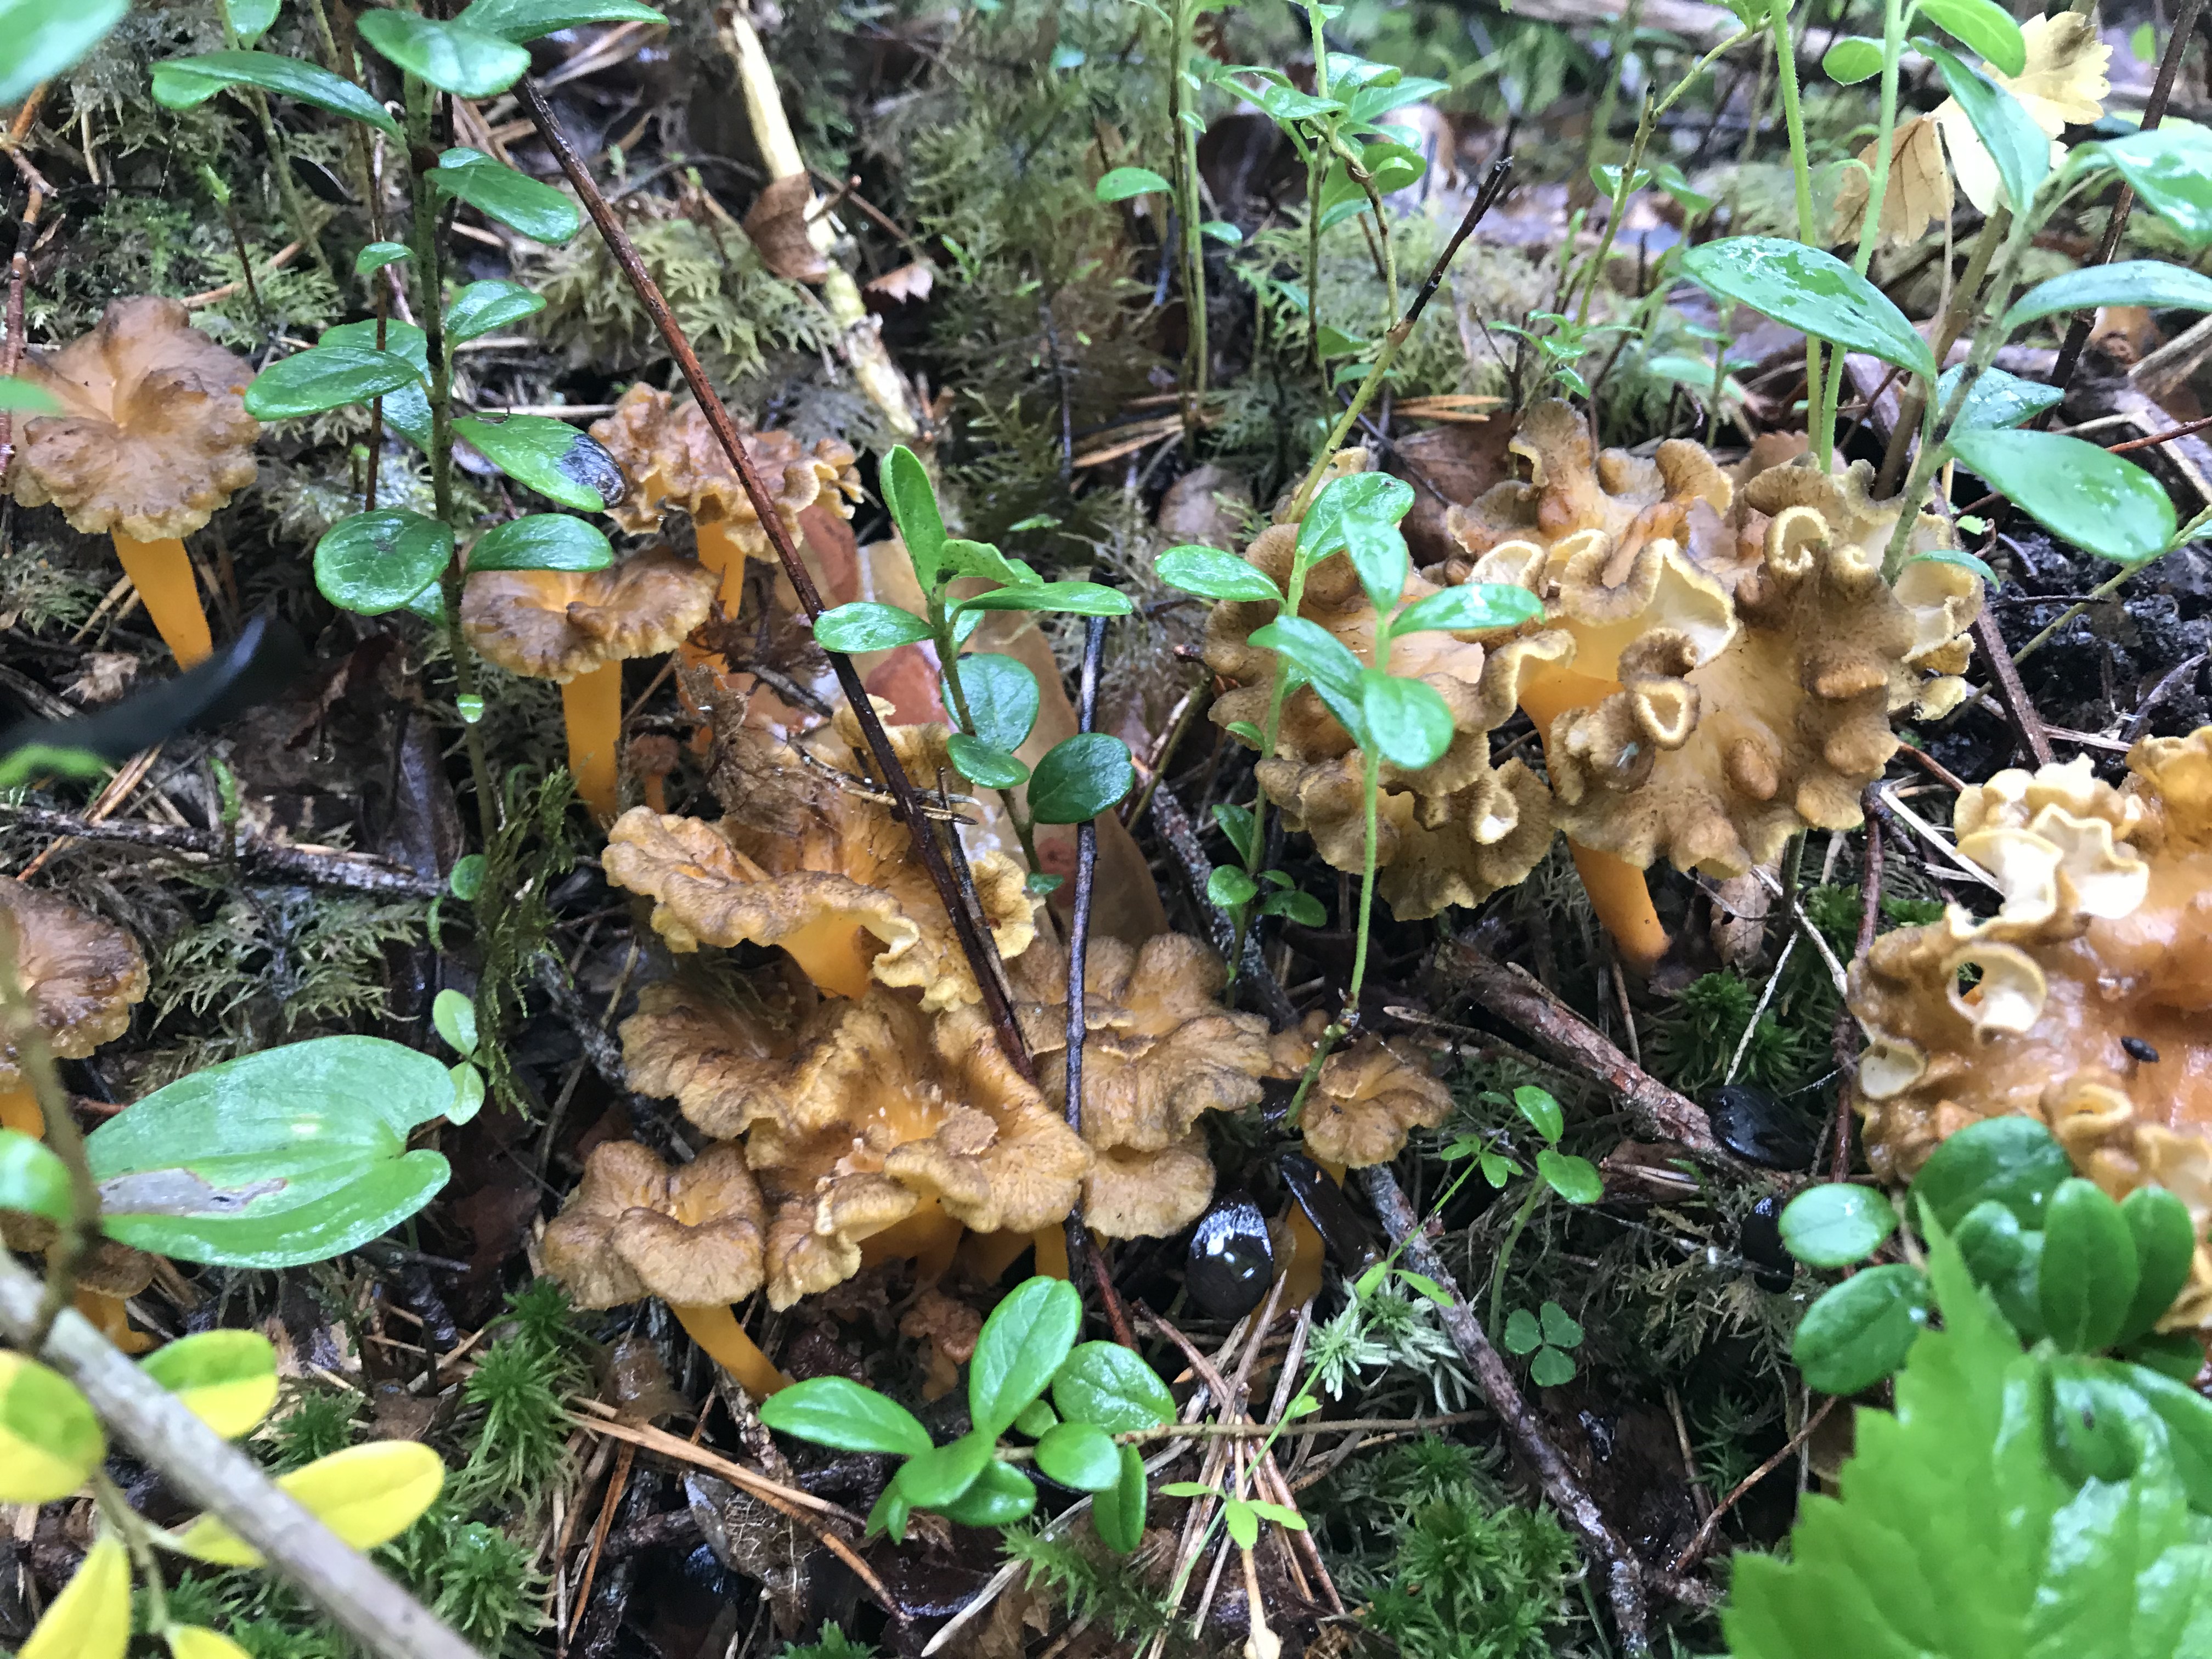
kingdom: Fungi
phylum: Basidiomycota
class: Agaricomycetes
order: Cantharellales
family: Hydnaceae
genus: Craterellus
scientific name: Craterellus lutescens
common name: Golden chanterelle
